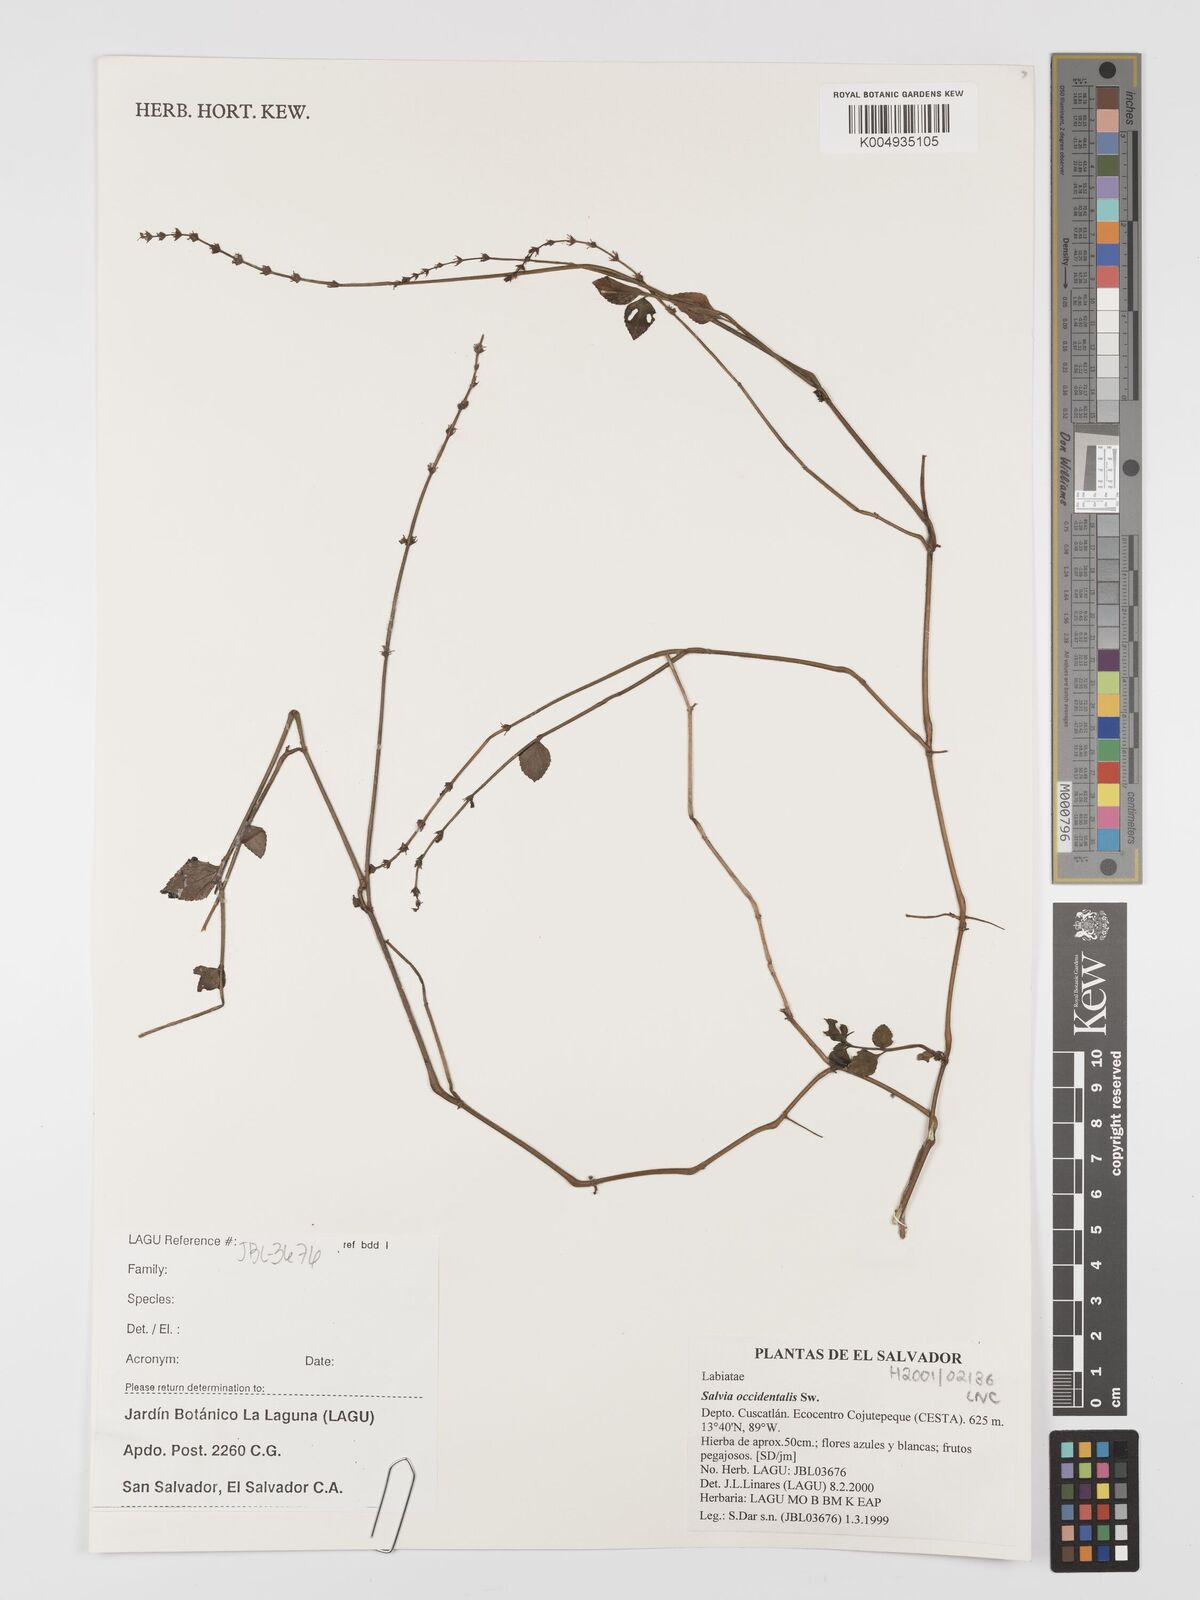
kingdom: Plantae
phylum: Tracheophyta
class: Magnoliopsida
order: Lamiales
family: Lamiaceae
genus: Salvia
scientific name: Salvia occidentalis
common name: West indian sage
